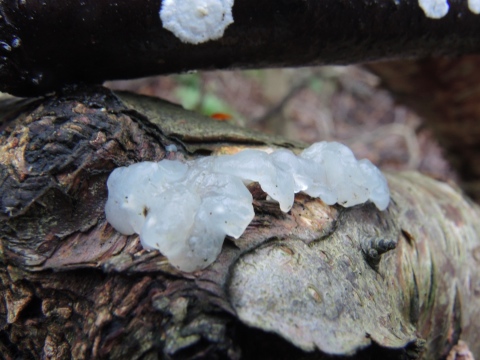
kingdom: Fungi
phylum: Basidiomycota
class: Agaricomycetes
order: Auriculariales
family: Hyaloriaceae
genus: Myxarium
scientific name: Myxarium nucleatum
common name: klar bævretop
